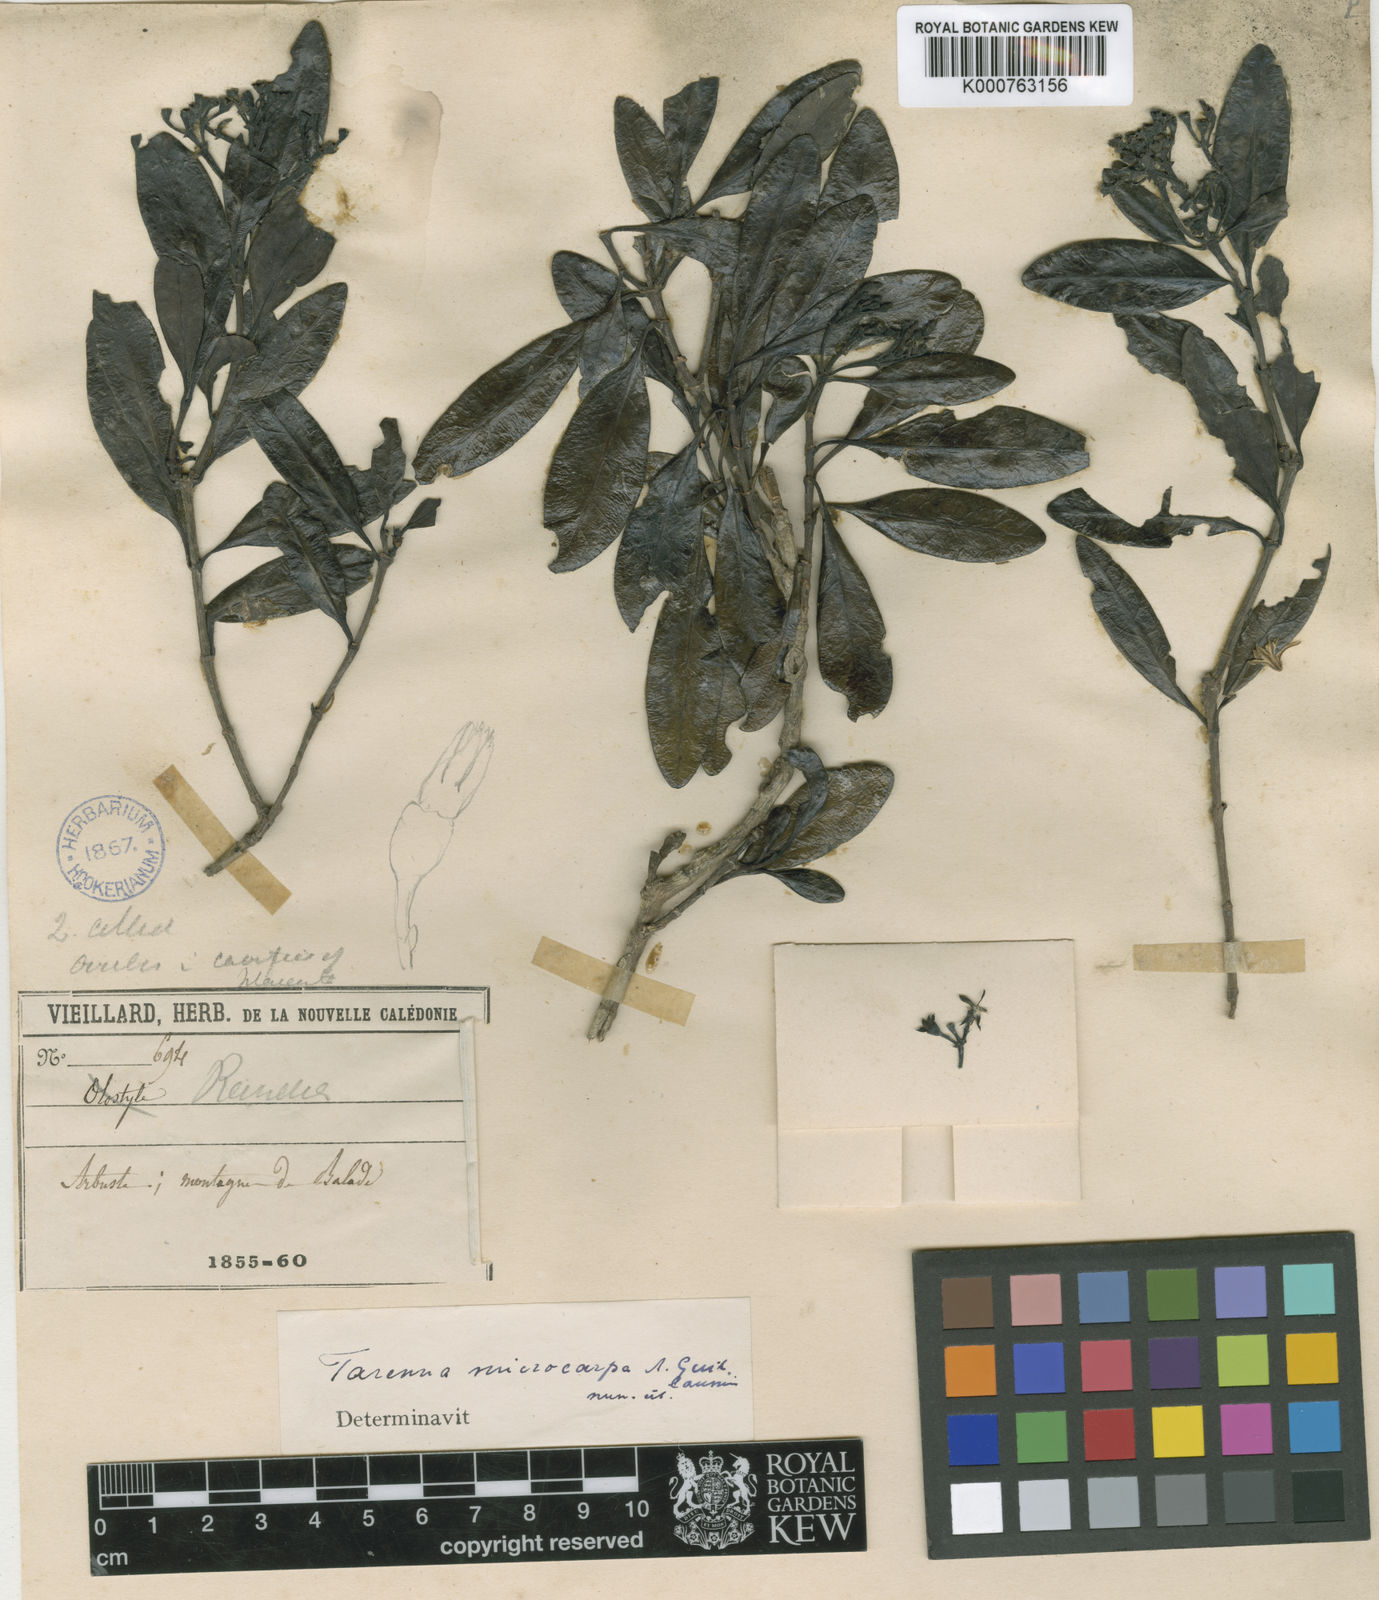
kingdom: Plantae
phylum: Tracheophyta
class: Magnoliopsida
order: Gentianales
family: Rubiaceae
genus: Tarenna
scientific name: Tarenna
